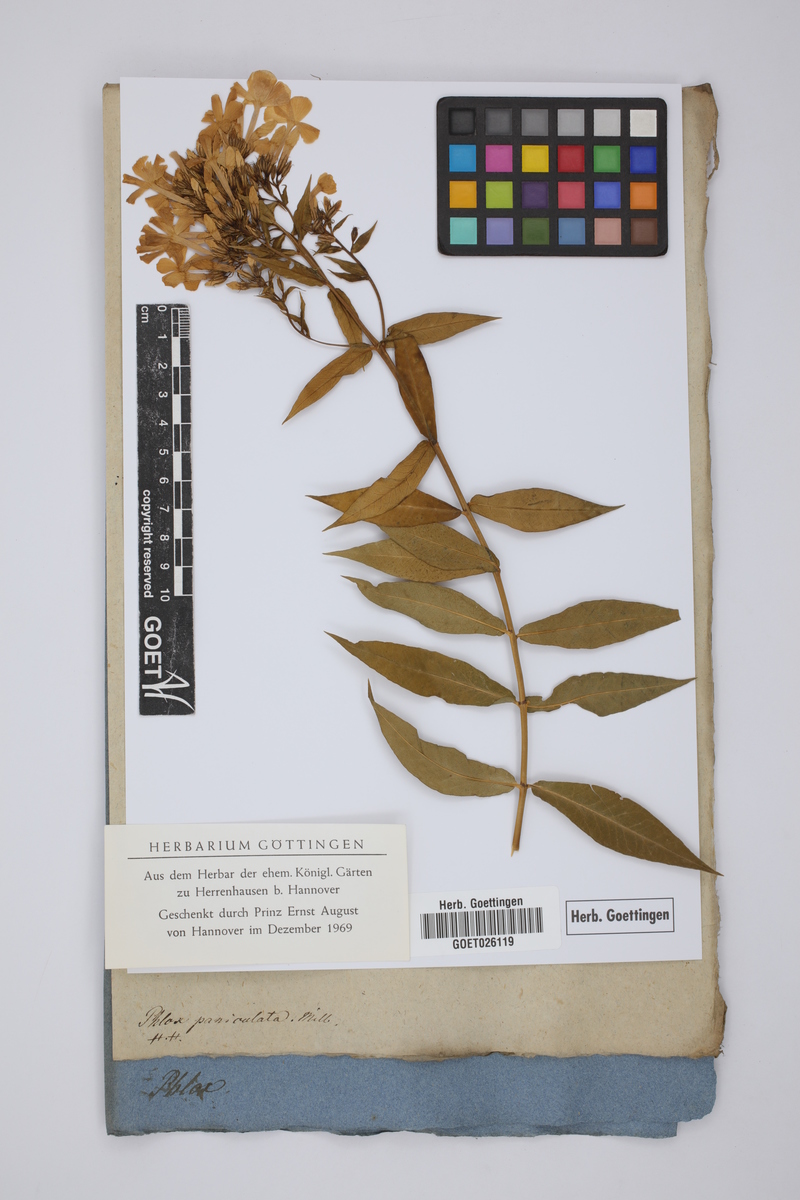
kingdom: Plantae
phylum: Tracheophyta
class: Magnoliopsida
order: Ericales
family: Polemoniaceae
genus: Phlox
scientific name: Phlox paniculata
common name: Fall phlox
